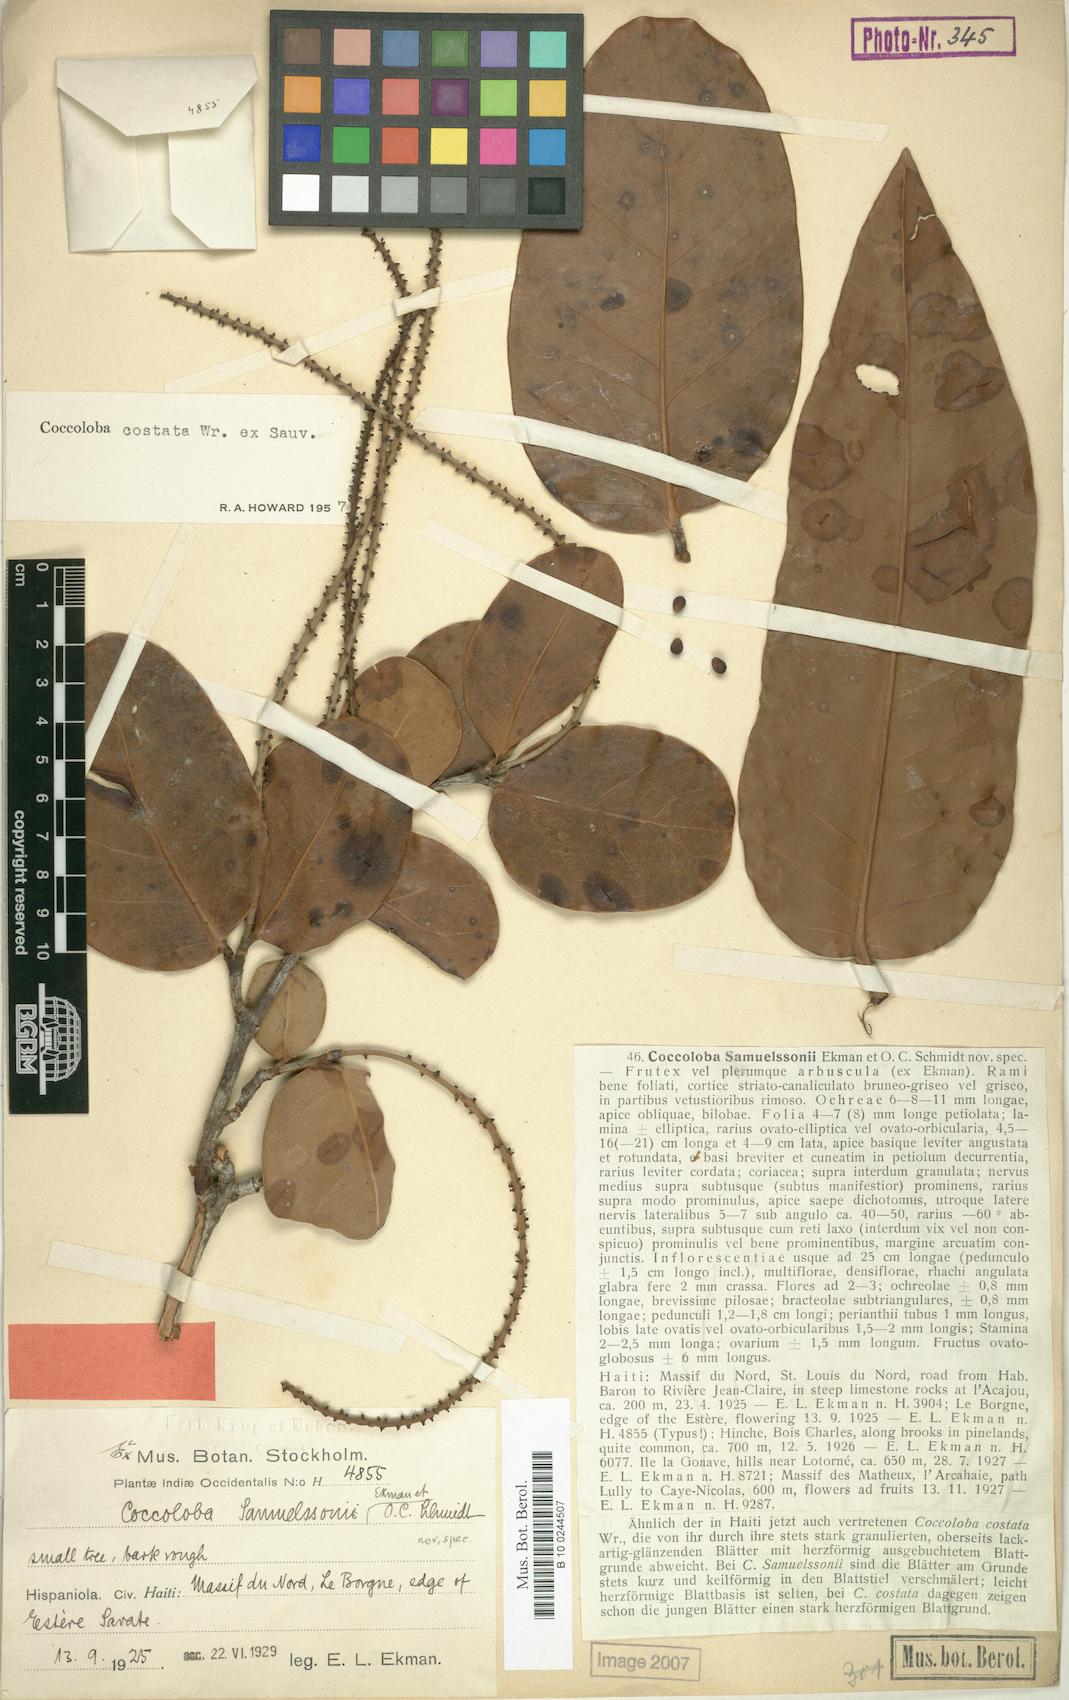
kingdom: Plantae
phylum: Tracheophyta
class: Magnoliopsida
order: Caryophyllales
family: Polygonaceae
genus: Coccoloba
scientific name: Coccoloba costata
